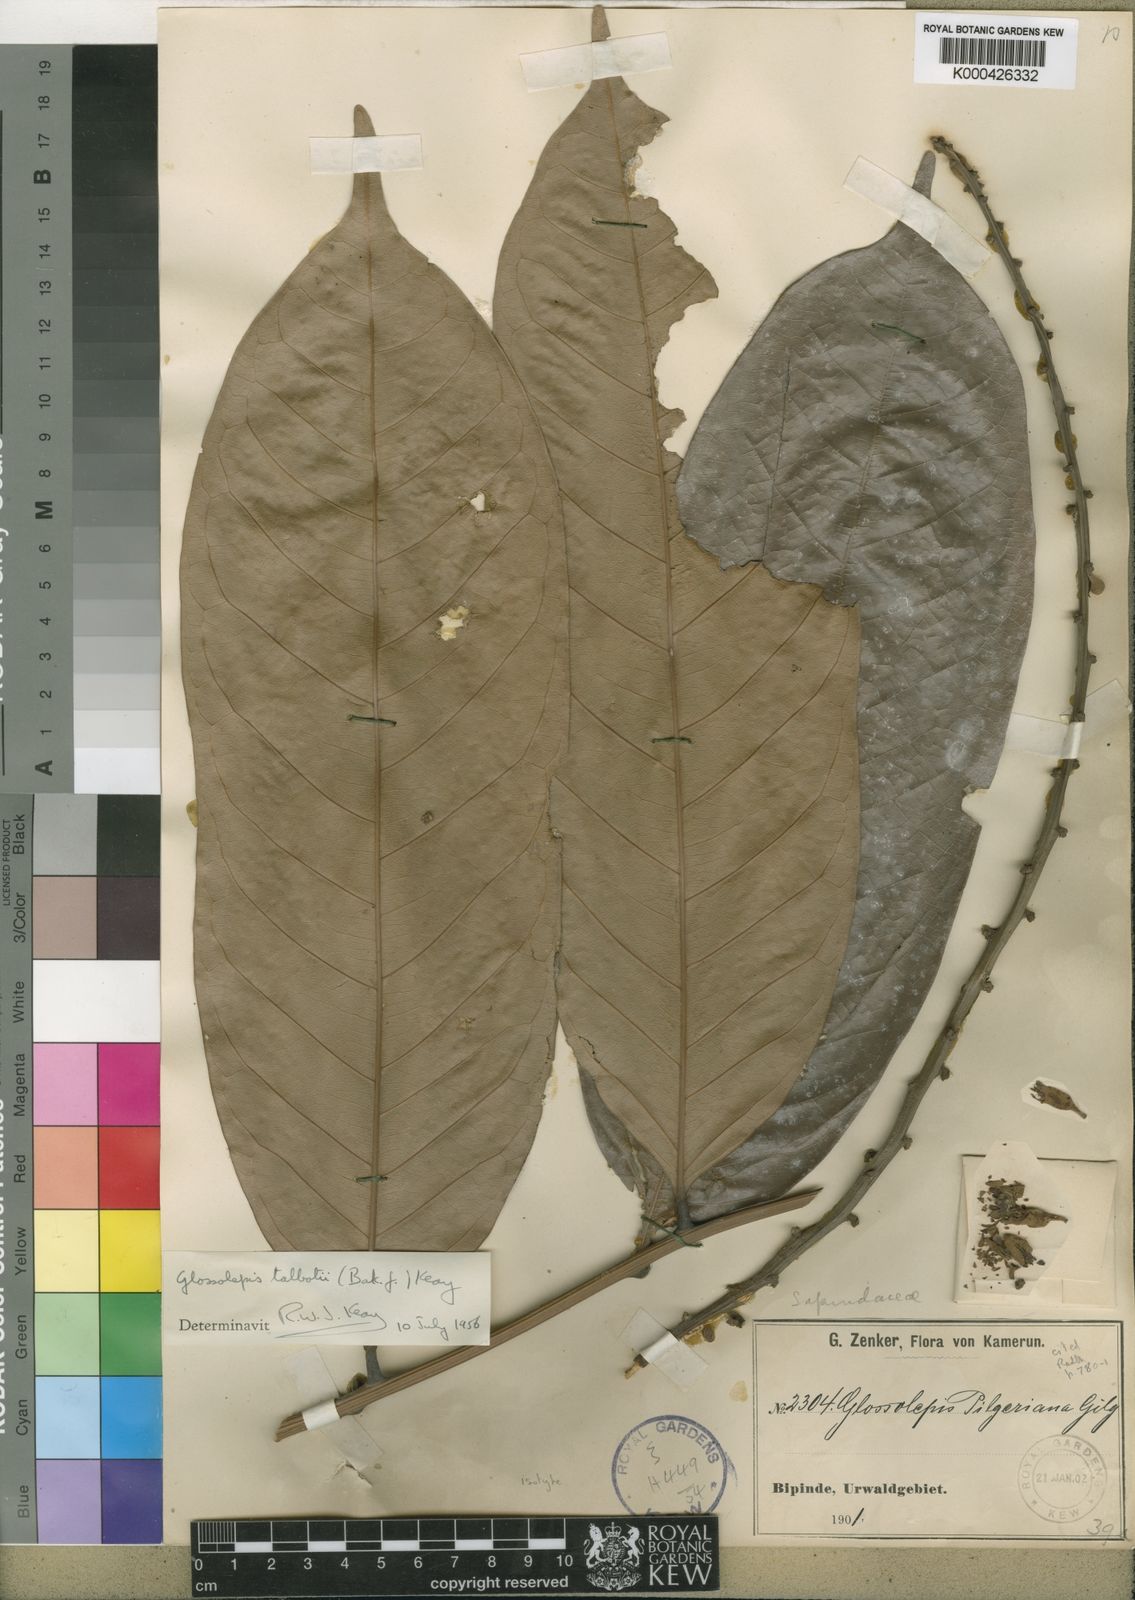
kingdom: Plantae
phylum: Tracheophyta
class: Magnoliopsida
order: Sapindales
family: Sapindaceae
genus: Chytranthus
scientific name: Chytranthus talbotii
